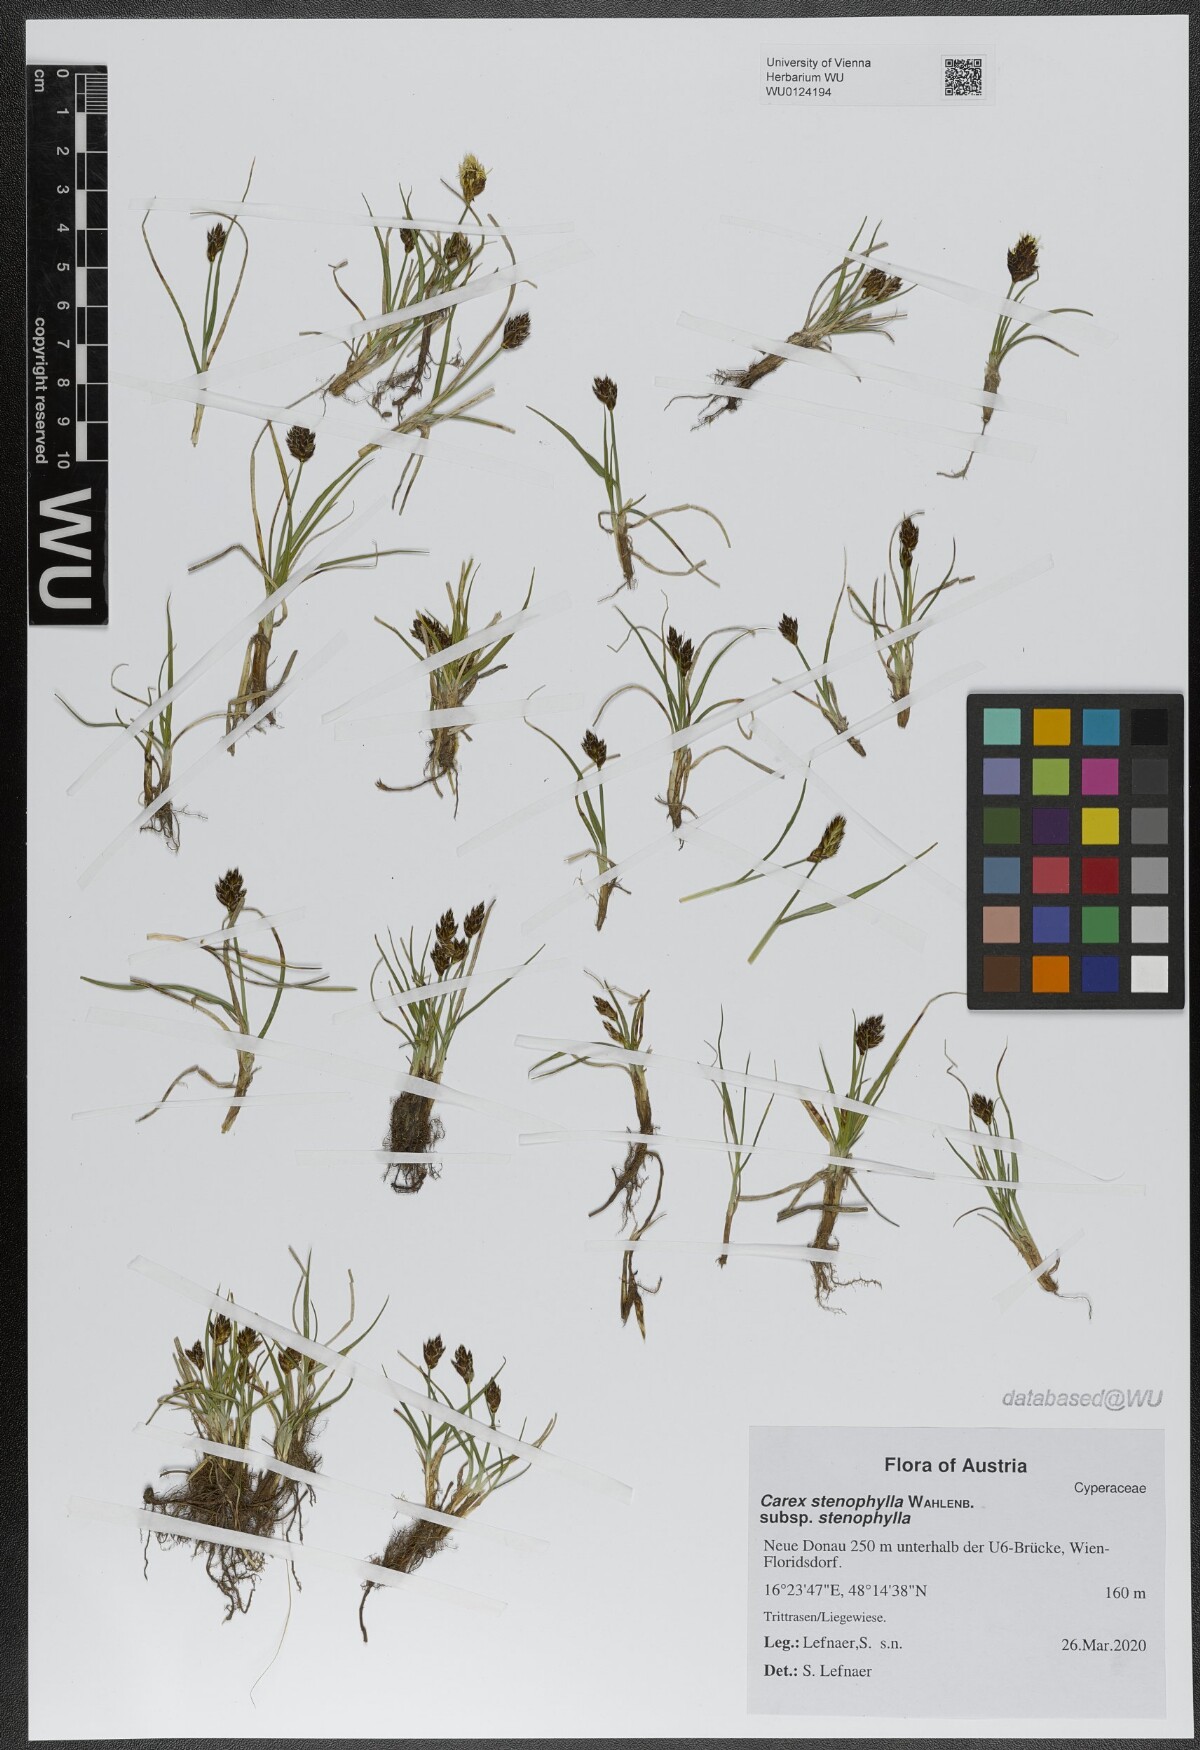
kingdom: Plantae
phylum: Tracheophyta
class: Liliopsida
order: Poales
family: Cyperaceae
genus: Carex
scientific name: Carex stenophylla
